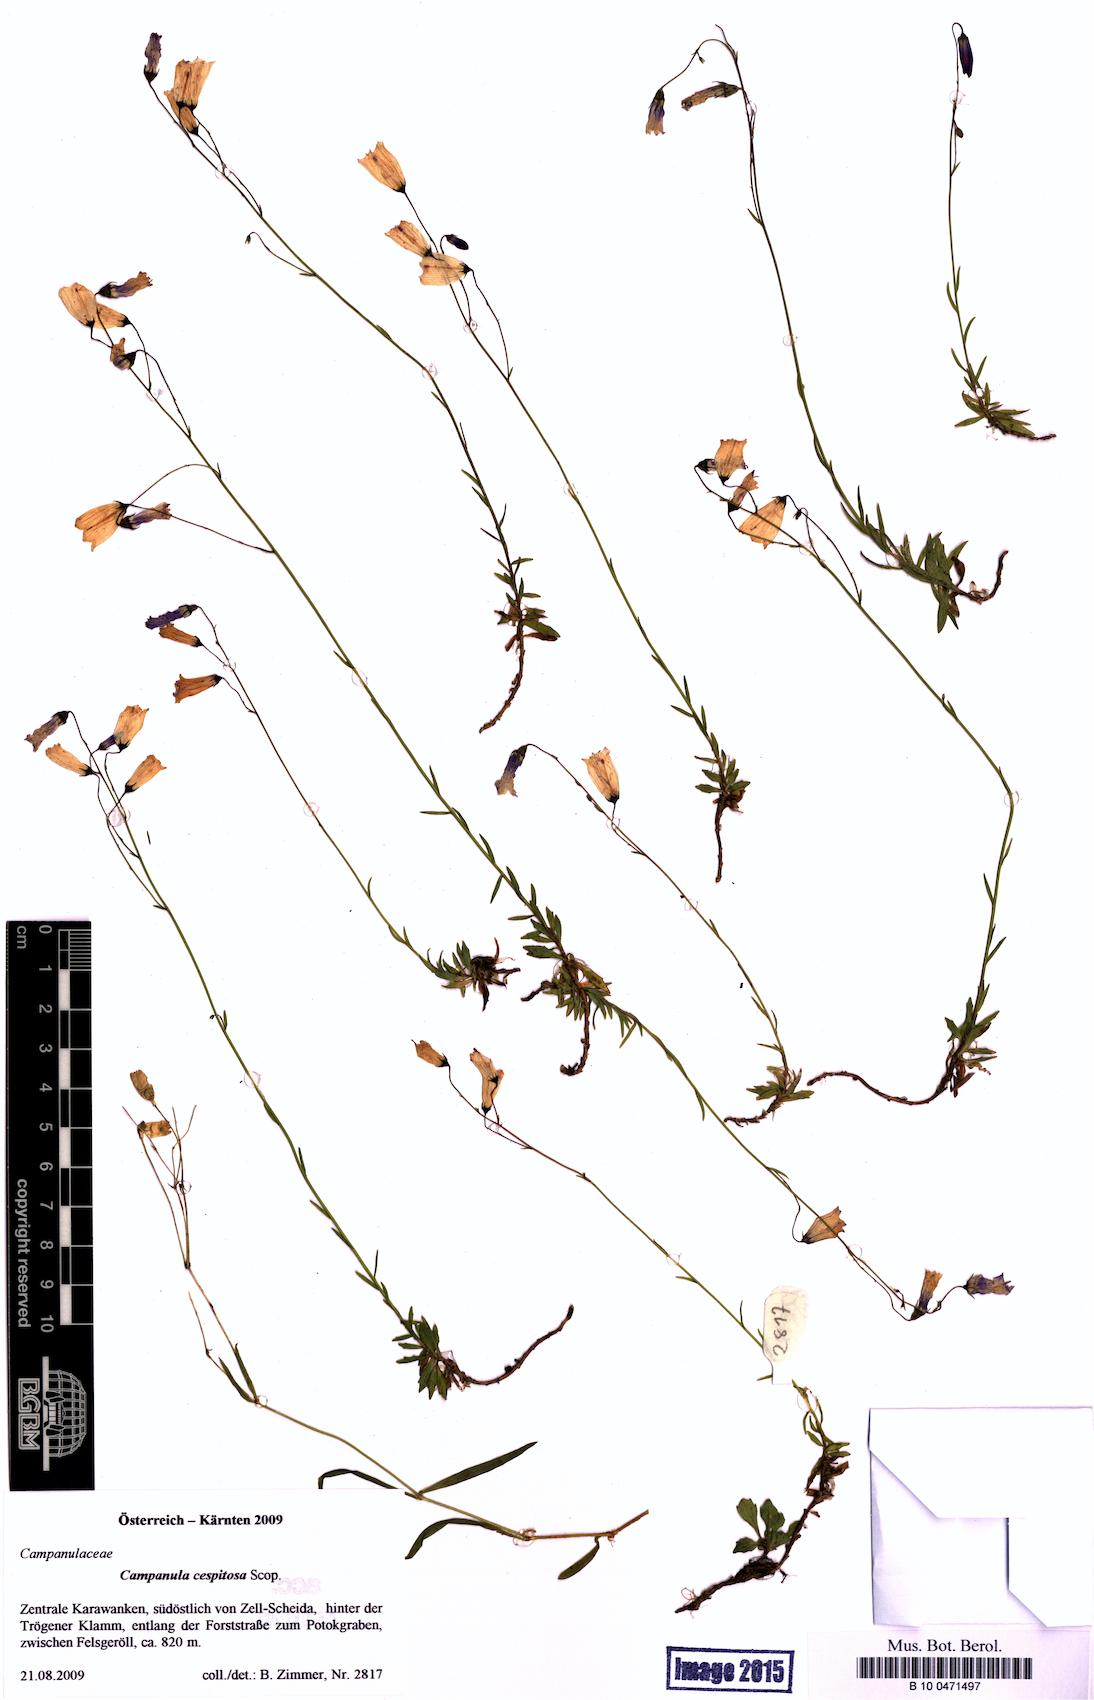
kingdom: Plantae
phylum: Tracheophyta
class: Magnoliopsida
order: Asterales
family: Campanulaceae
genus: Campanula
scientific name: Campanula cespitosa
